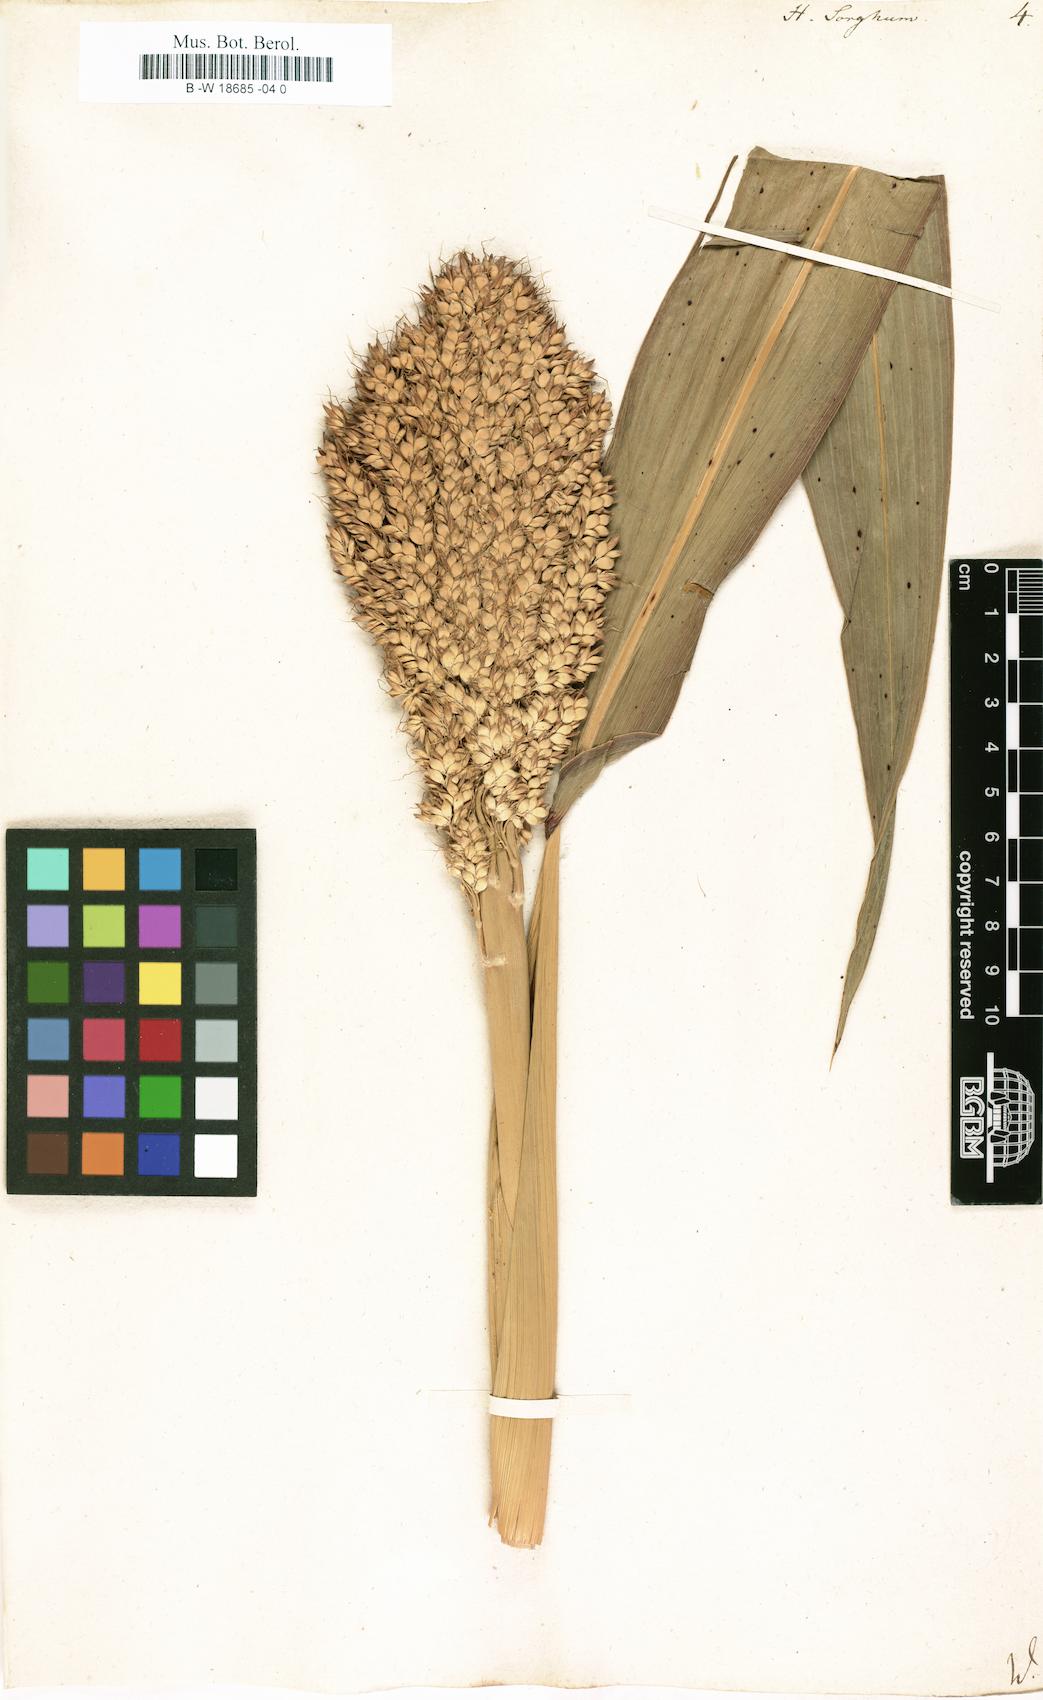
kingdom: Plantae
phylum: Tracheophyta
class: Liliopsida
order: Poales
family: Poaceae
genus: Sorghum
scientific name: Sorghum bicolor
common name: Sorghum
